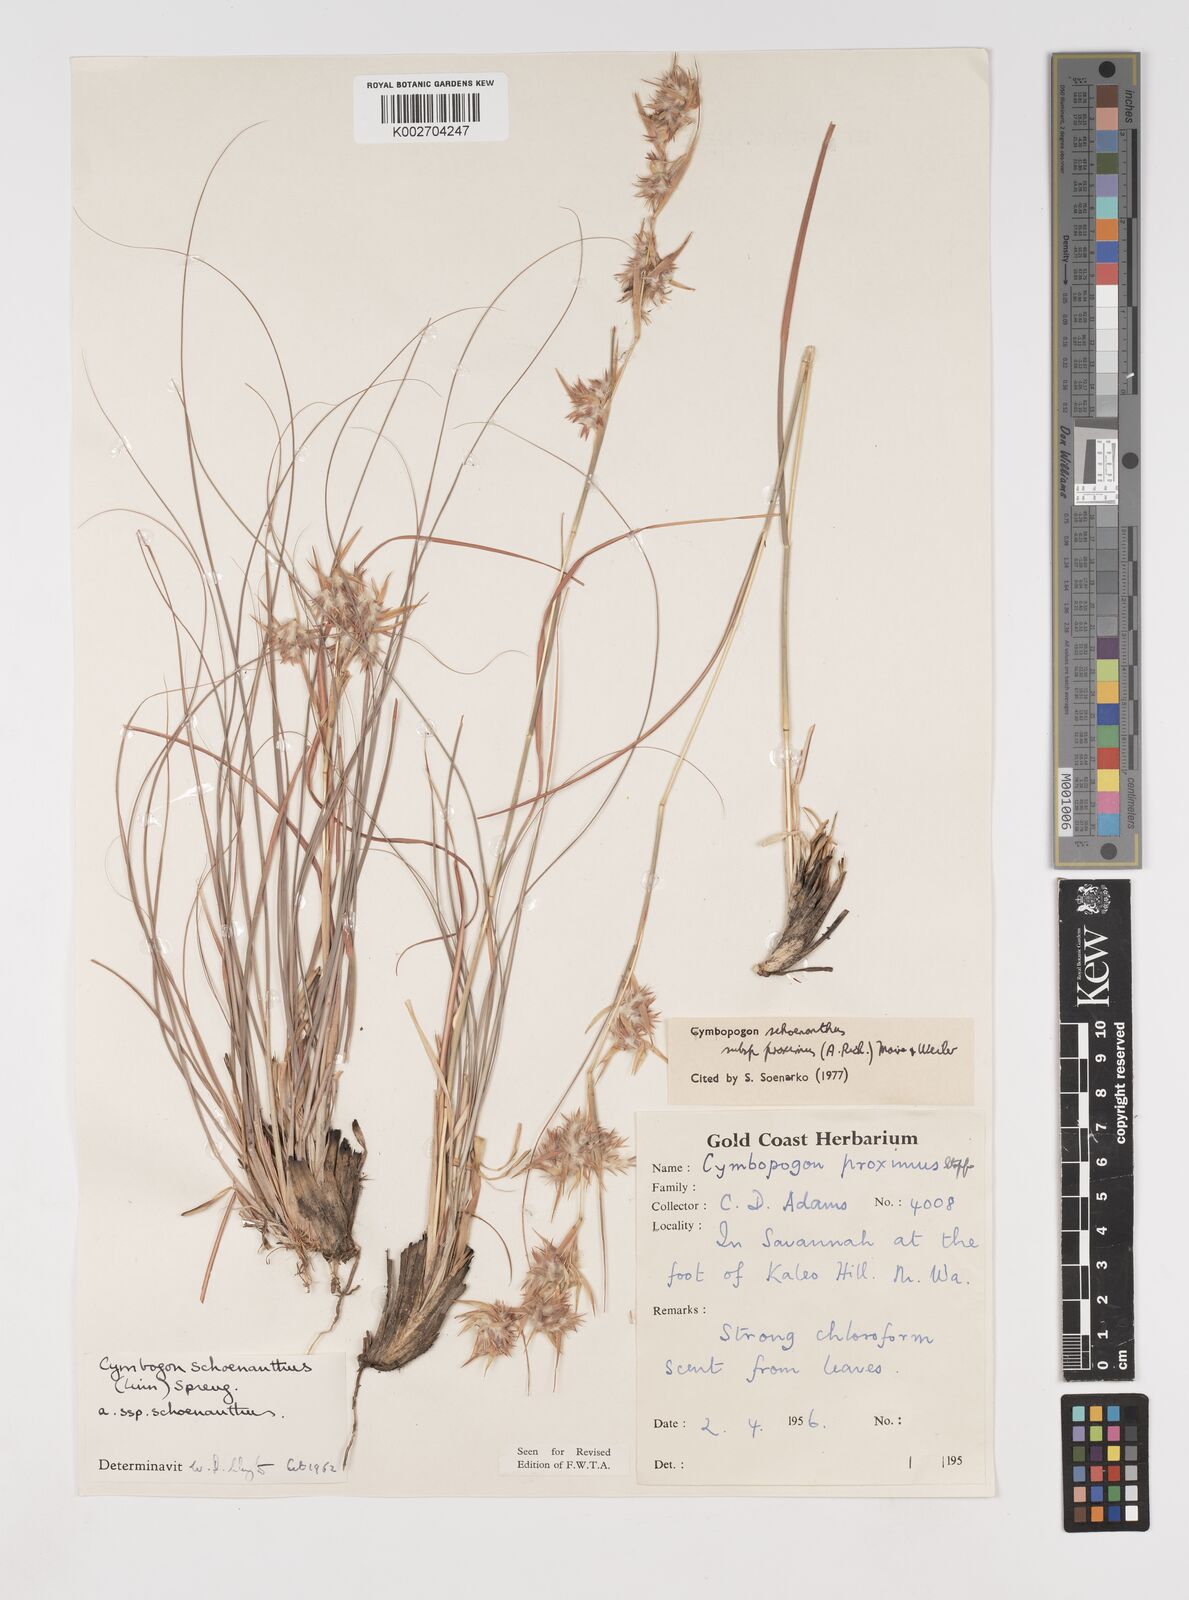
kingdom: Plantae
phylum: Tracheophyta
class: Liliopsida
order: Poales
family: Poaceae
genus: Cymbopogon
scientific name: Cymbopogon schoenanthus
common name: Geranium grass
